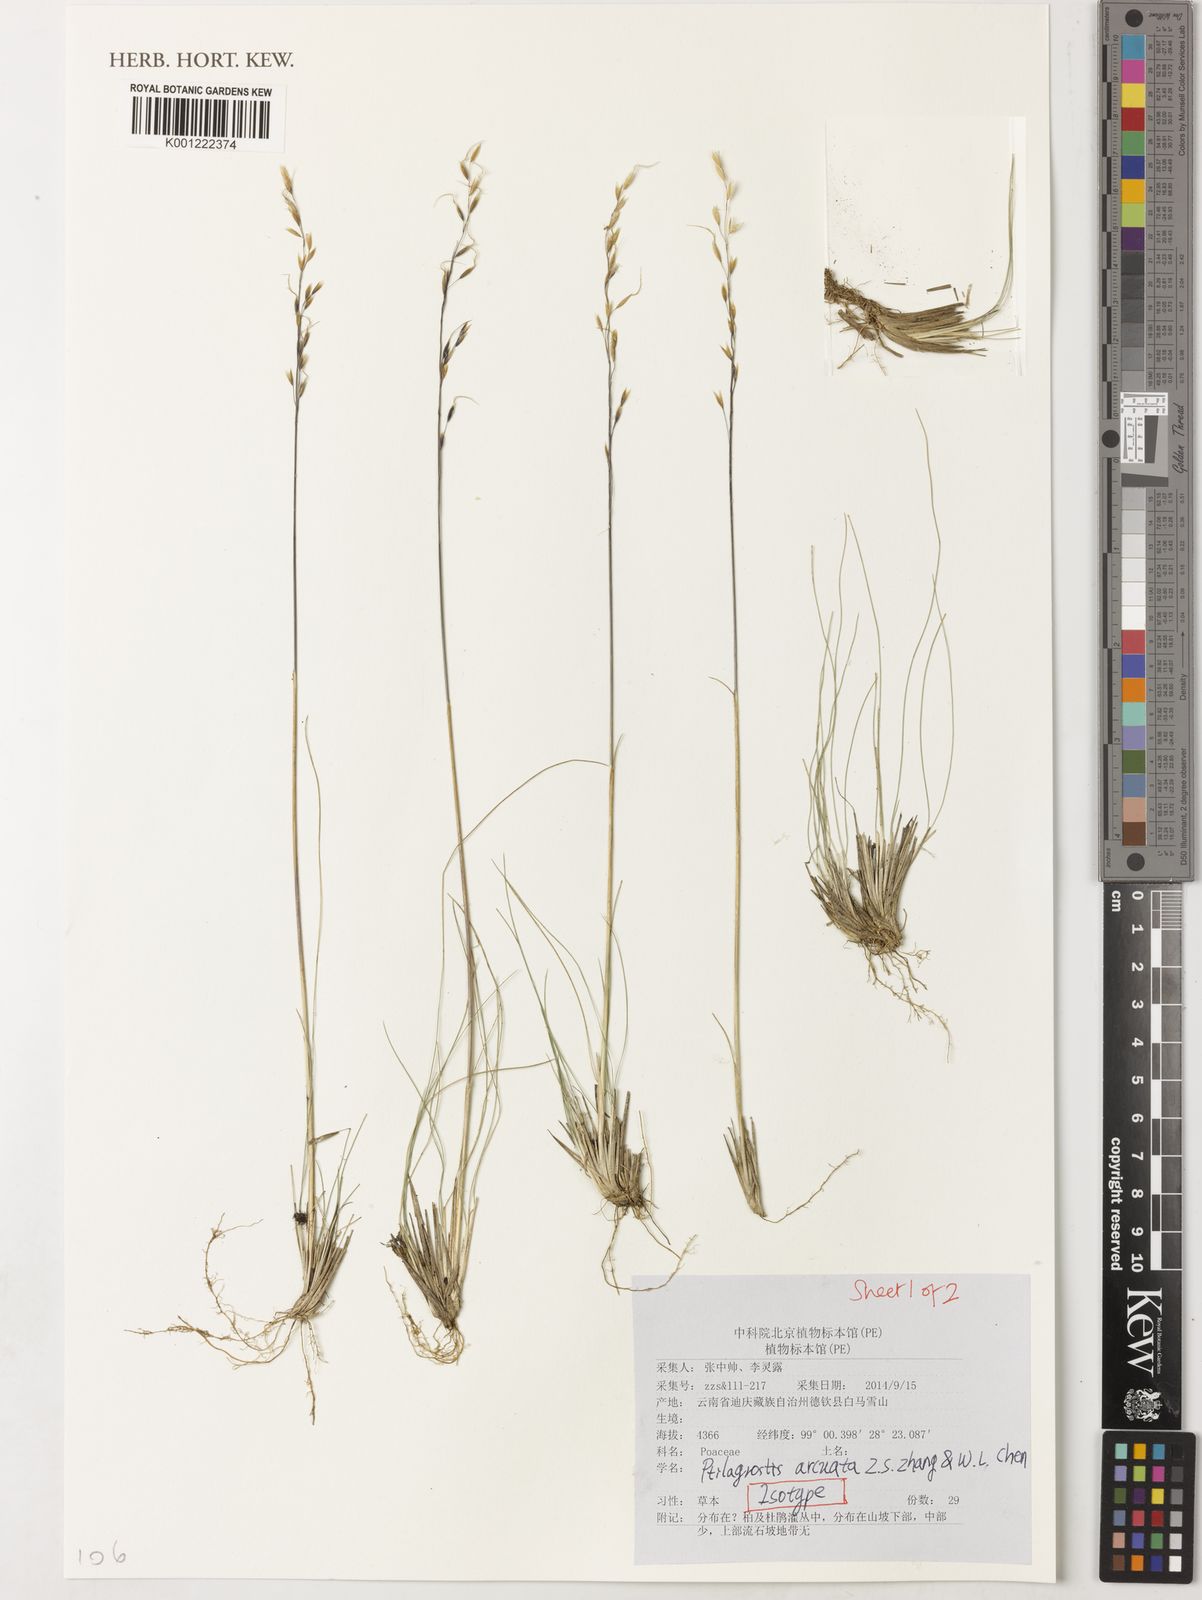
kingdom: Plantae
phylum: Tracheophyta
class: Liliopsida
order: Poales
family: Poaceae
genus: Ptilagrostis
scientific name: Ptilagrostis arcuata
